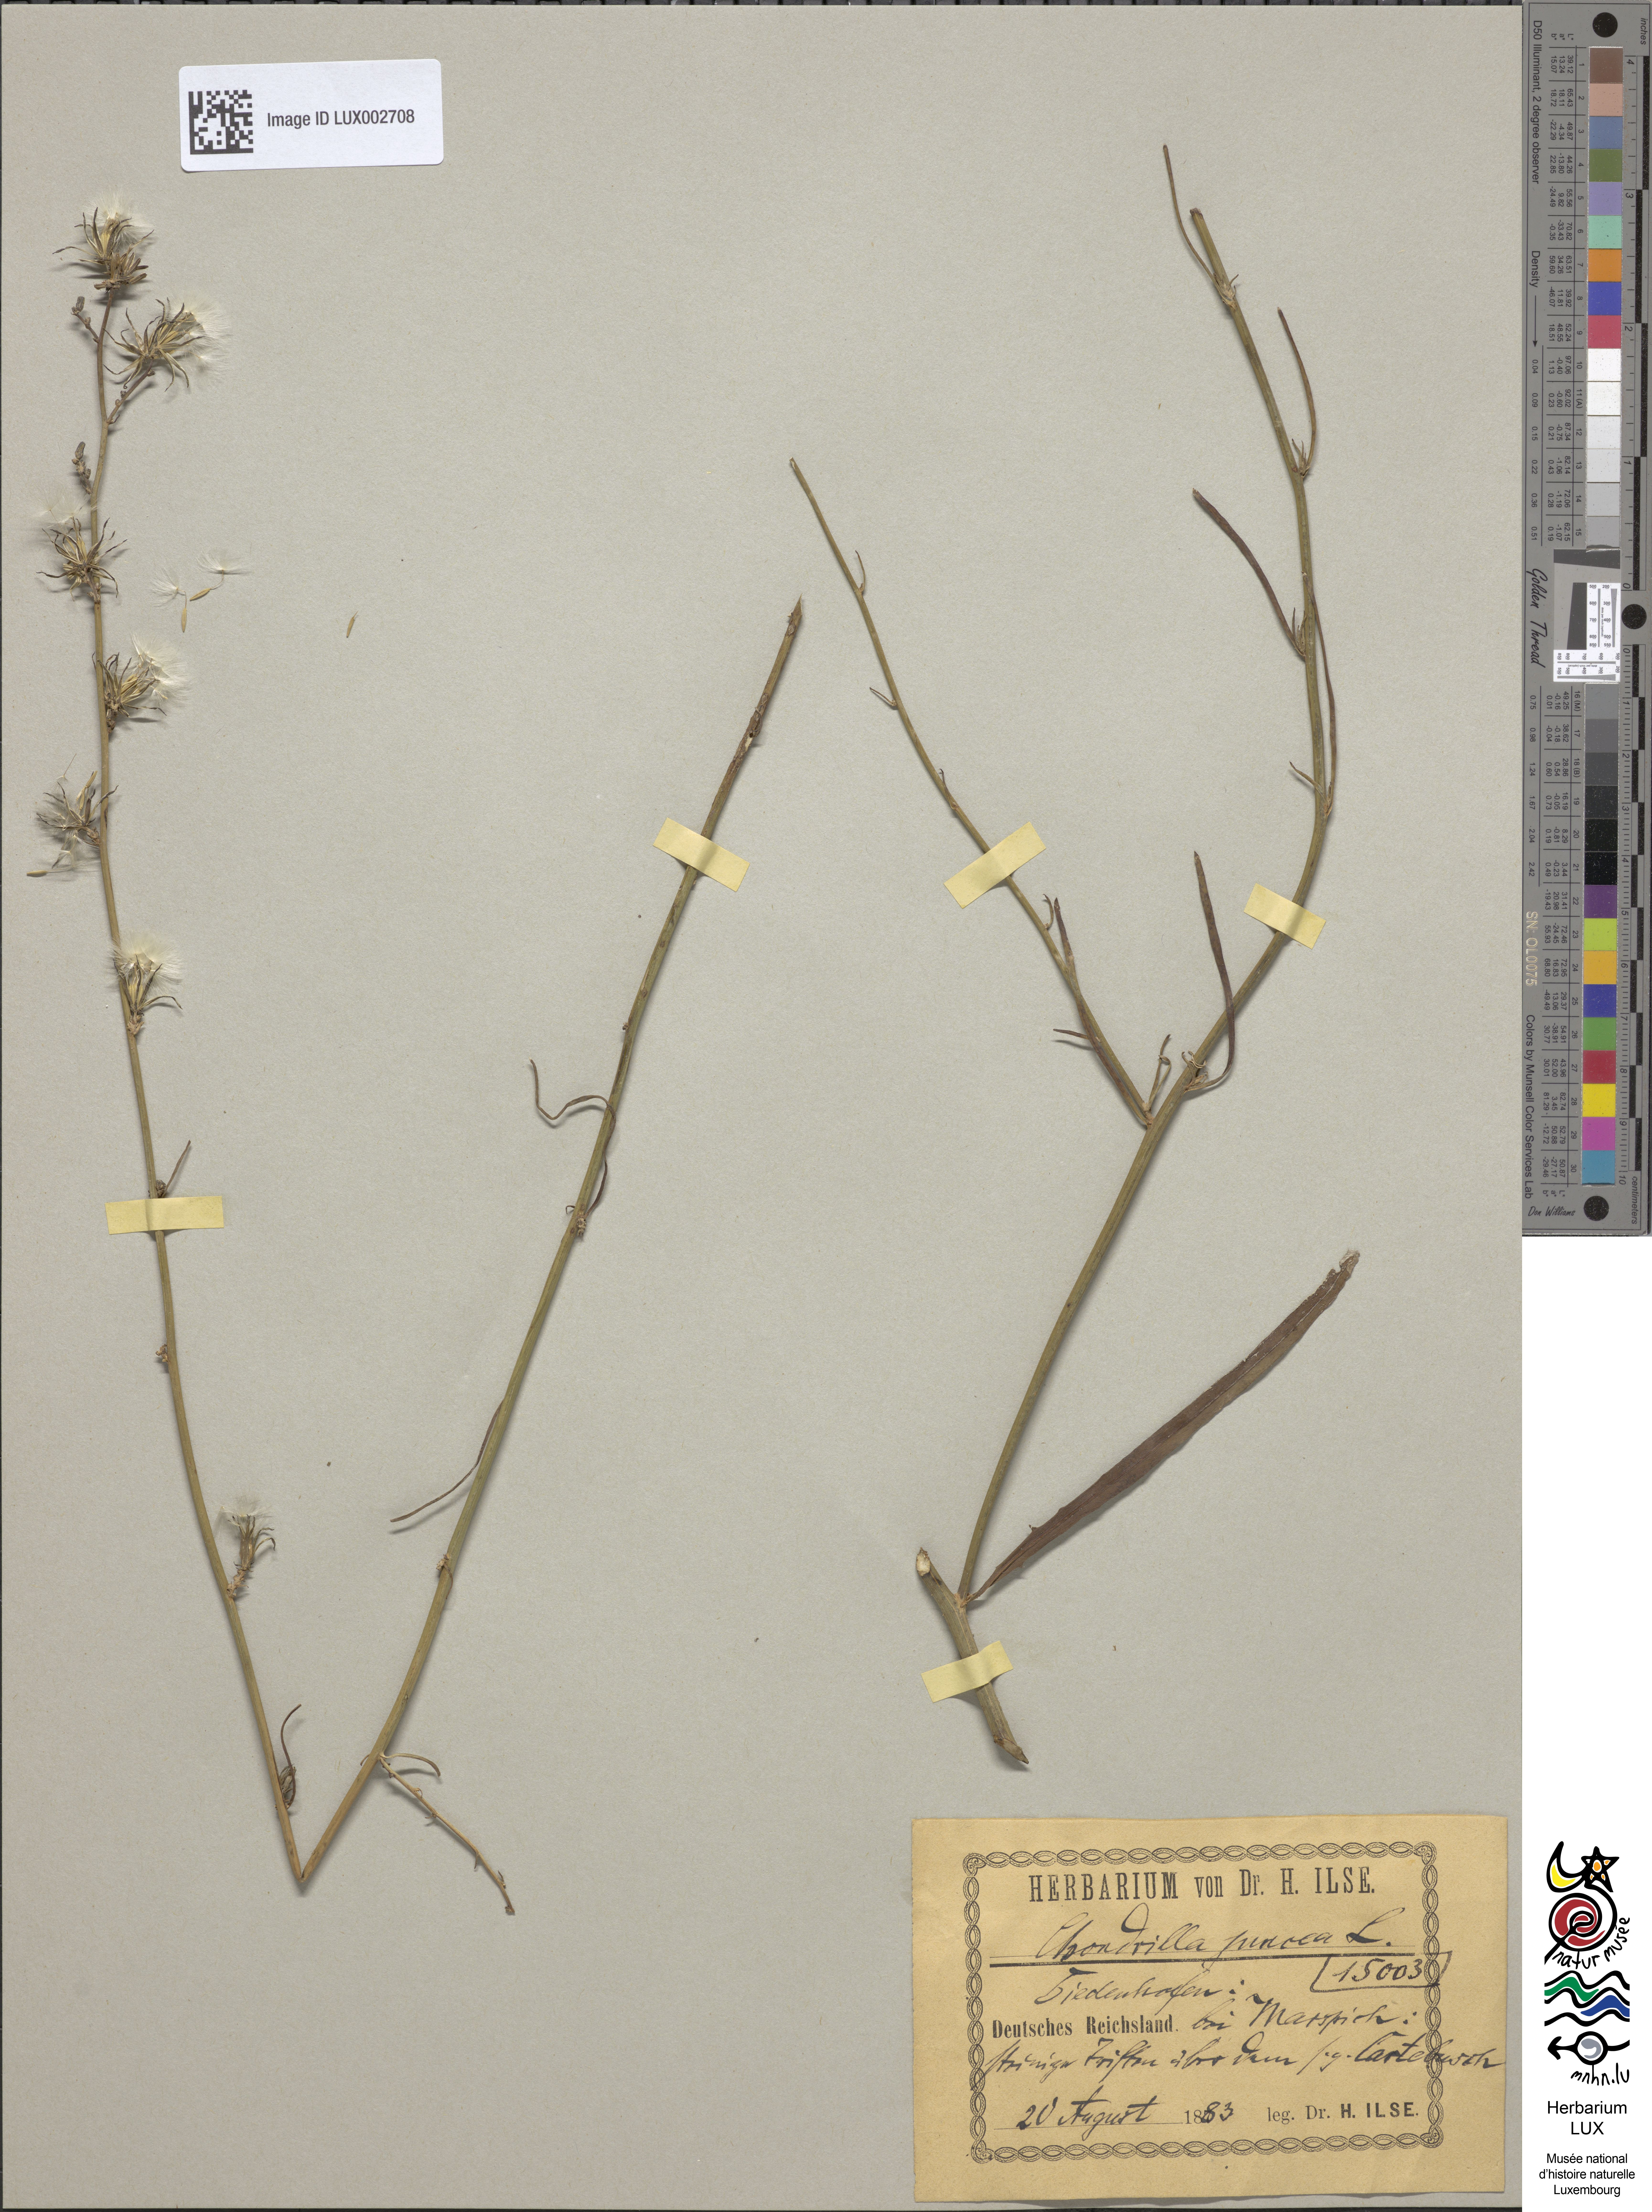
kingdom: Plantae
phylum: Tracheophyta
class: Magnoliopsida
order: Asterales
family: Asteraceae
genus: Chondrilla
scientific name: Chondrilla juncea
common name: Skeleton weed
